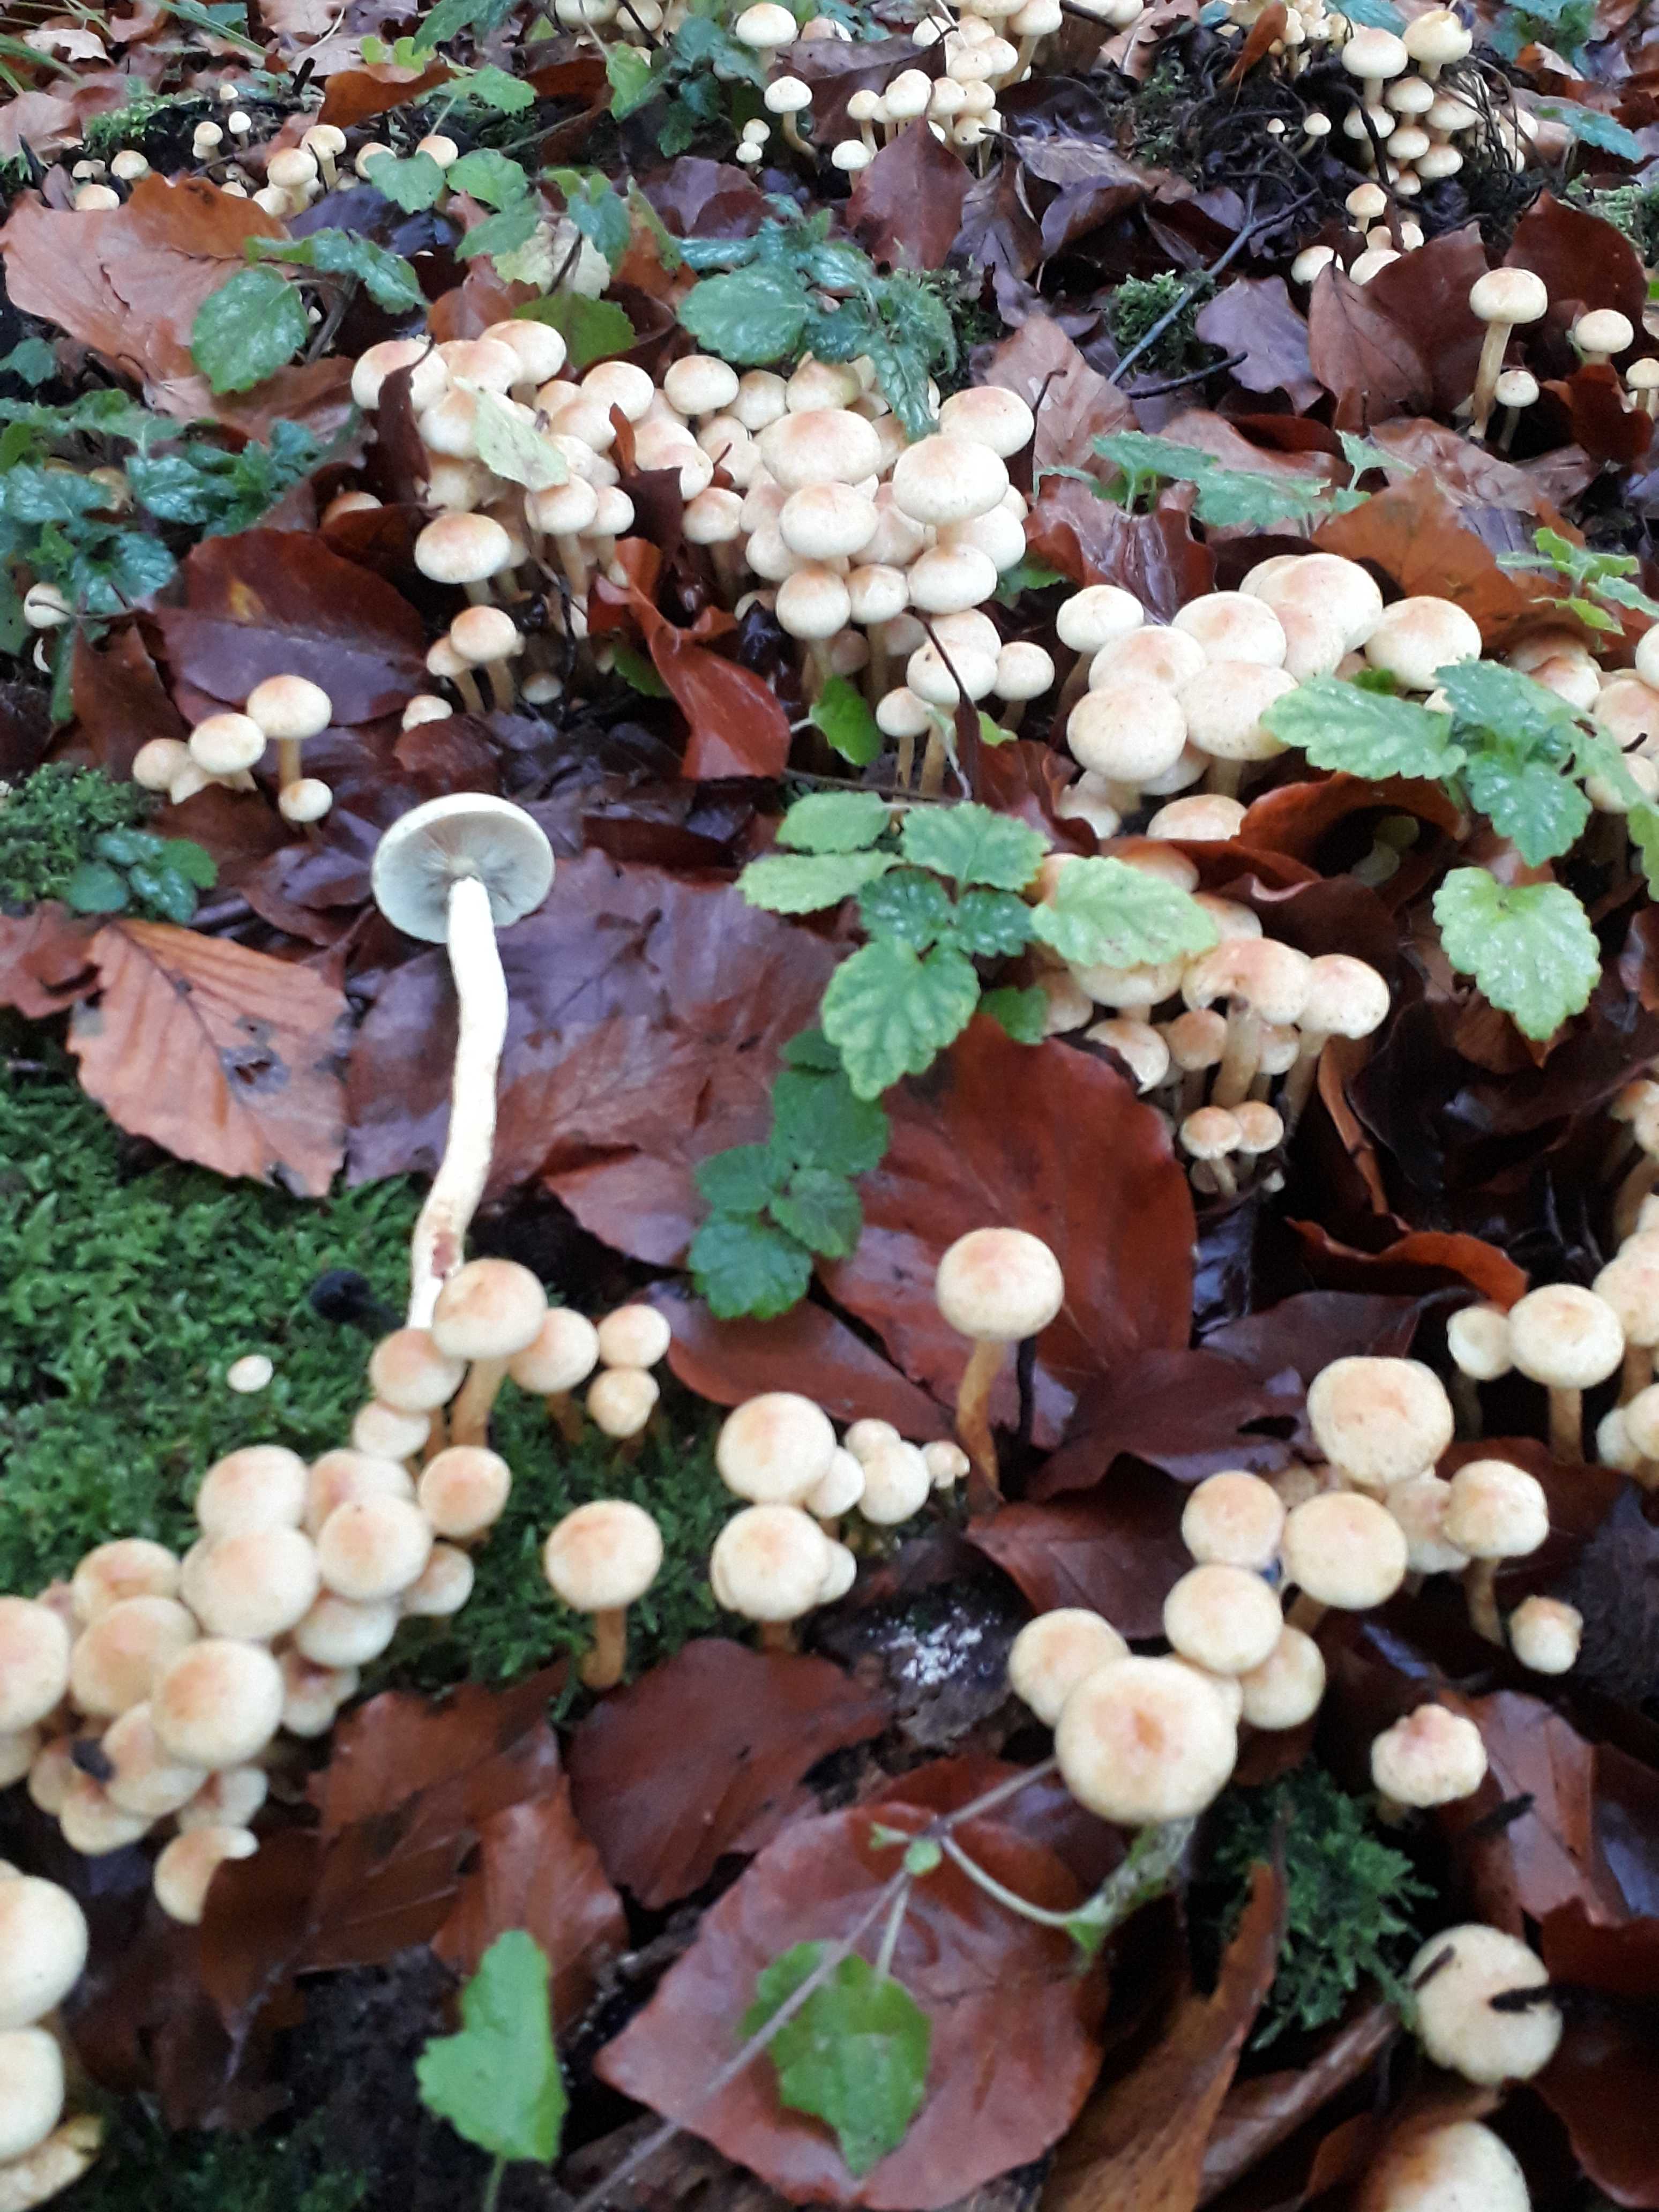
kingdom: Fungi
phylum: Basidiomycota
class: Agaricomycetes
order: Agaricales
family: Strophariaceae
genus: Hypholoma
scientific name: Hypholoma fasciculare
